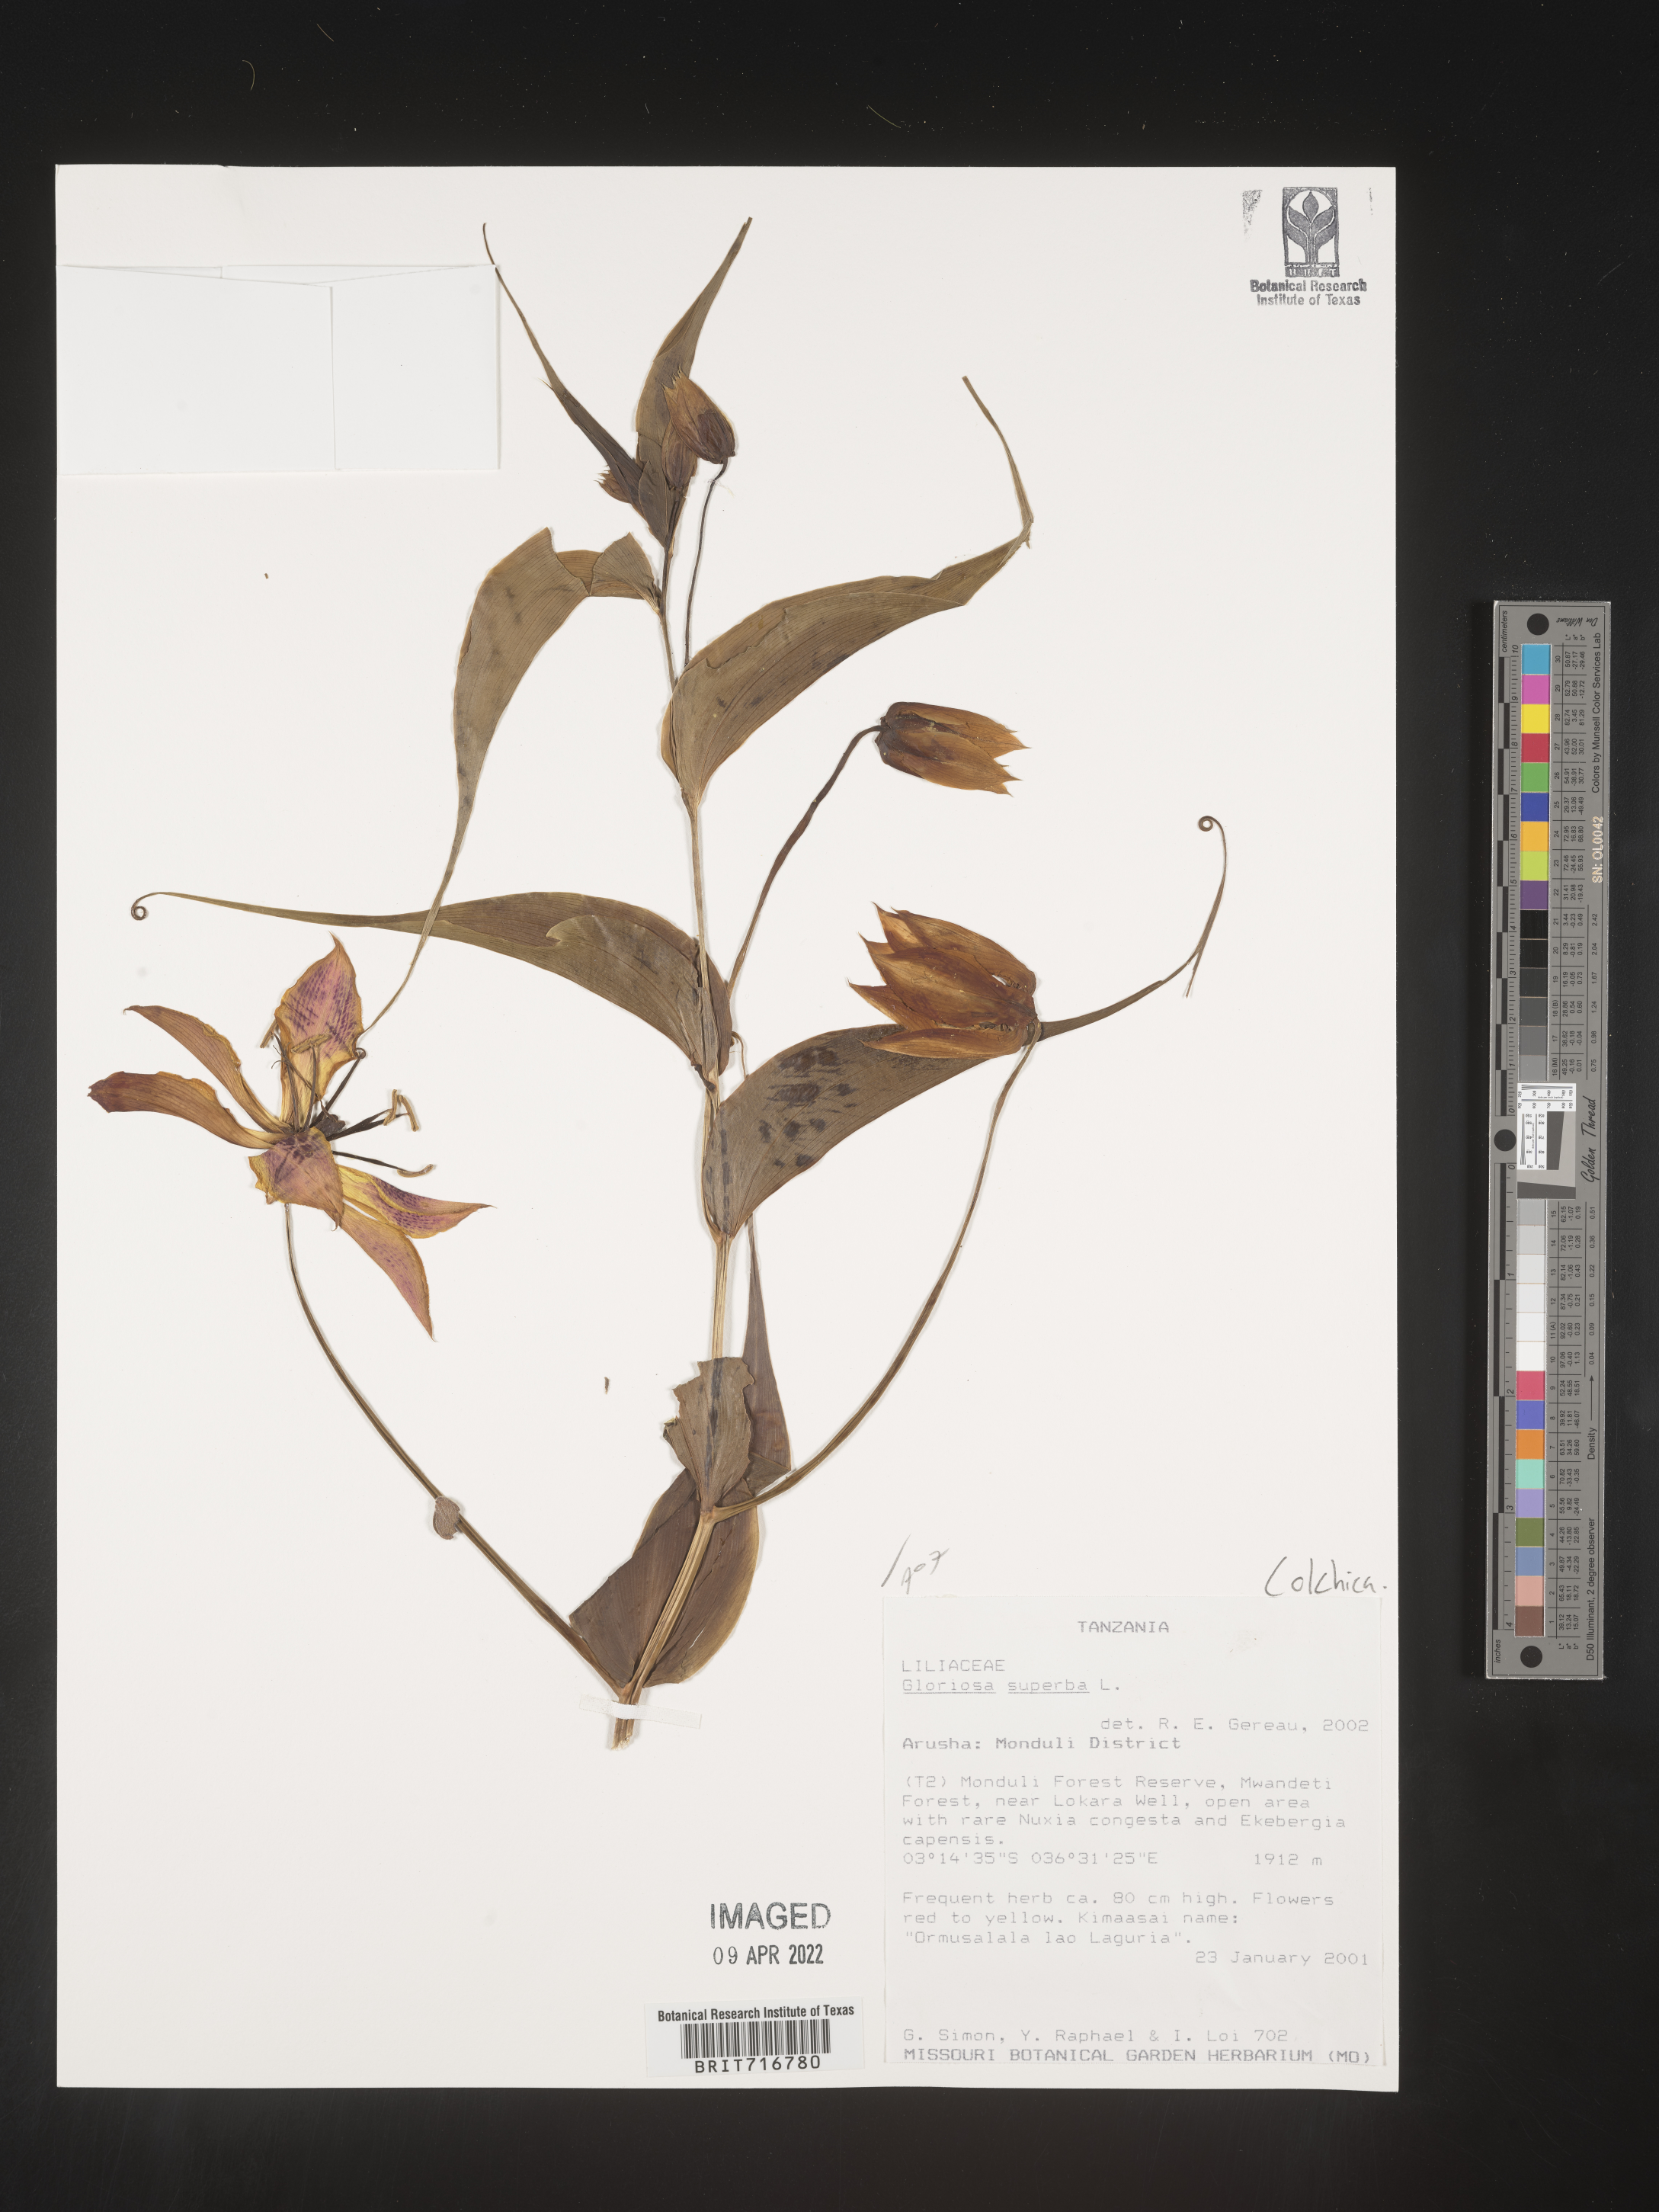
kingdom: Plantae
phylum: Tracheophyta
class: Liliopsida
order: Liliales
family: Colchicaceae
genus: Gloriosa
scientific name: Gloriosa
